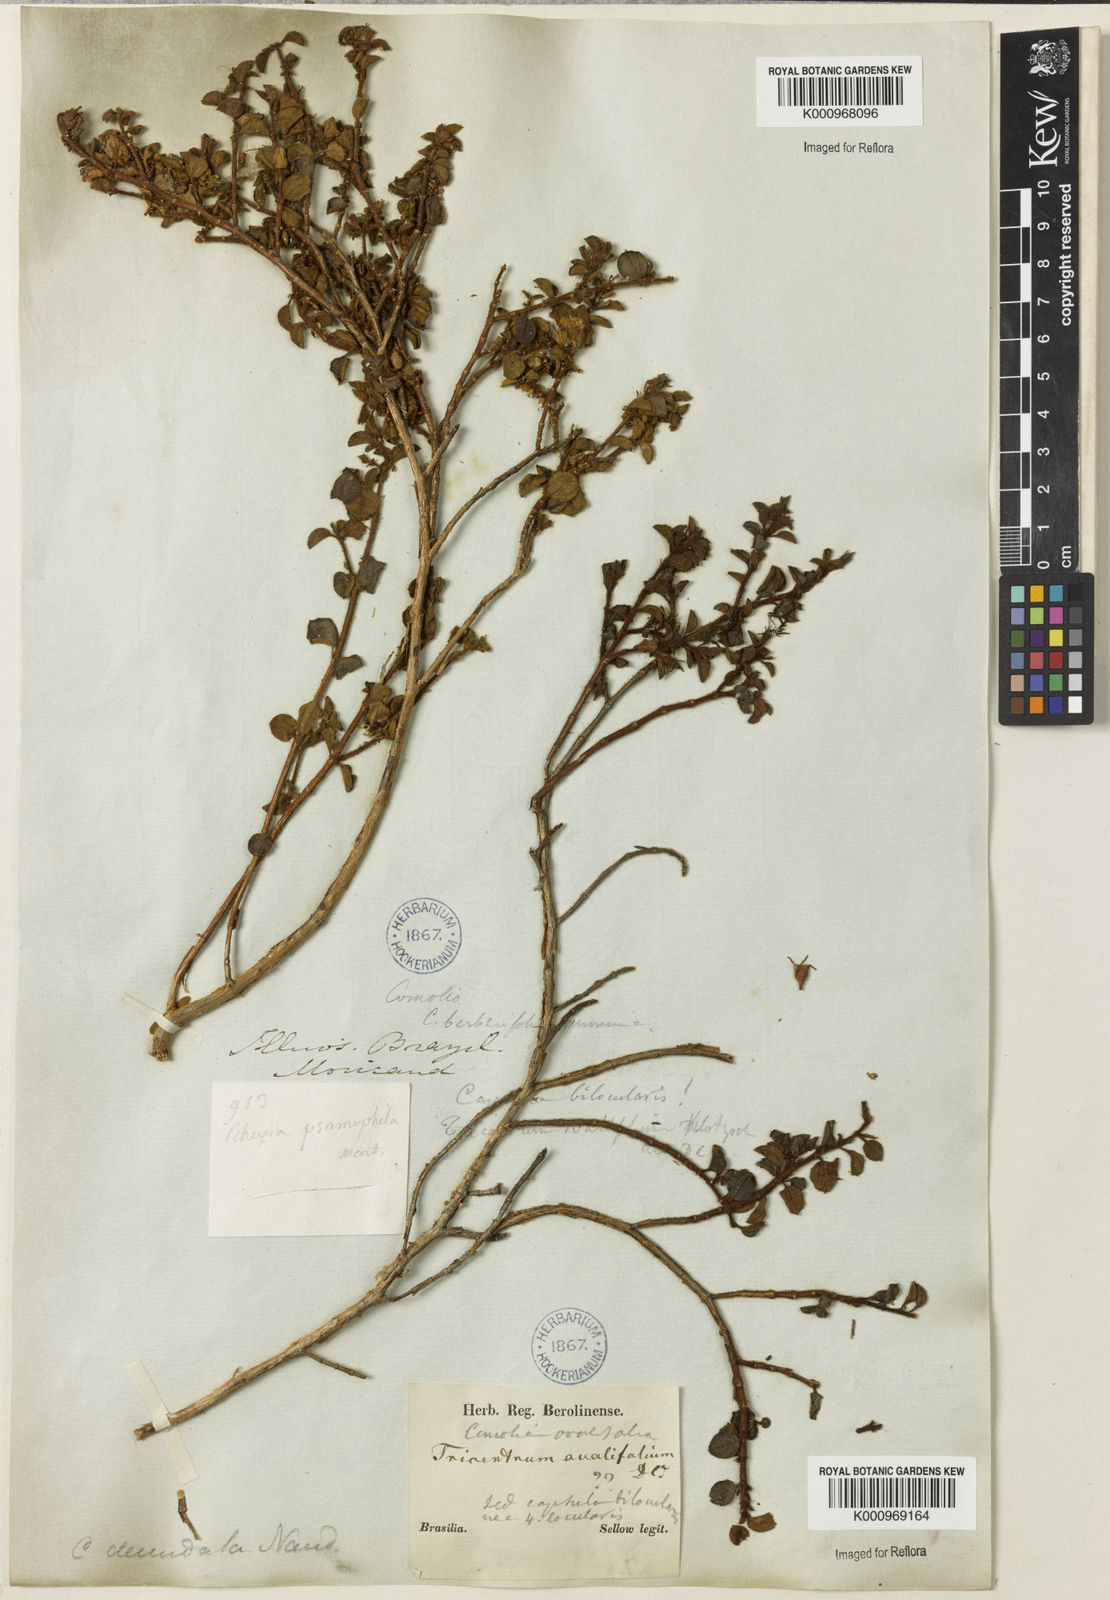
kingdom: Plantae
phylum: Tracheophyta
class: Magnoliopsida
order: Myrtales
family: Melastomataceae
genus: Comolia
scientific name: Comolia ovalifolia
